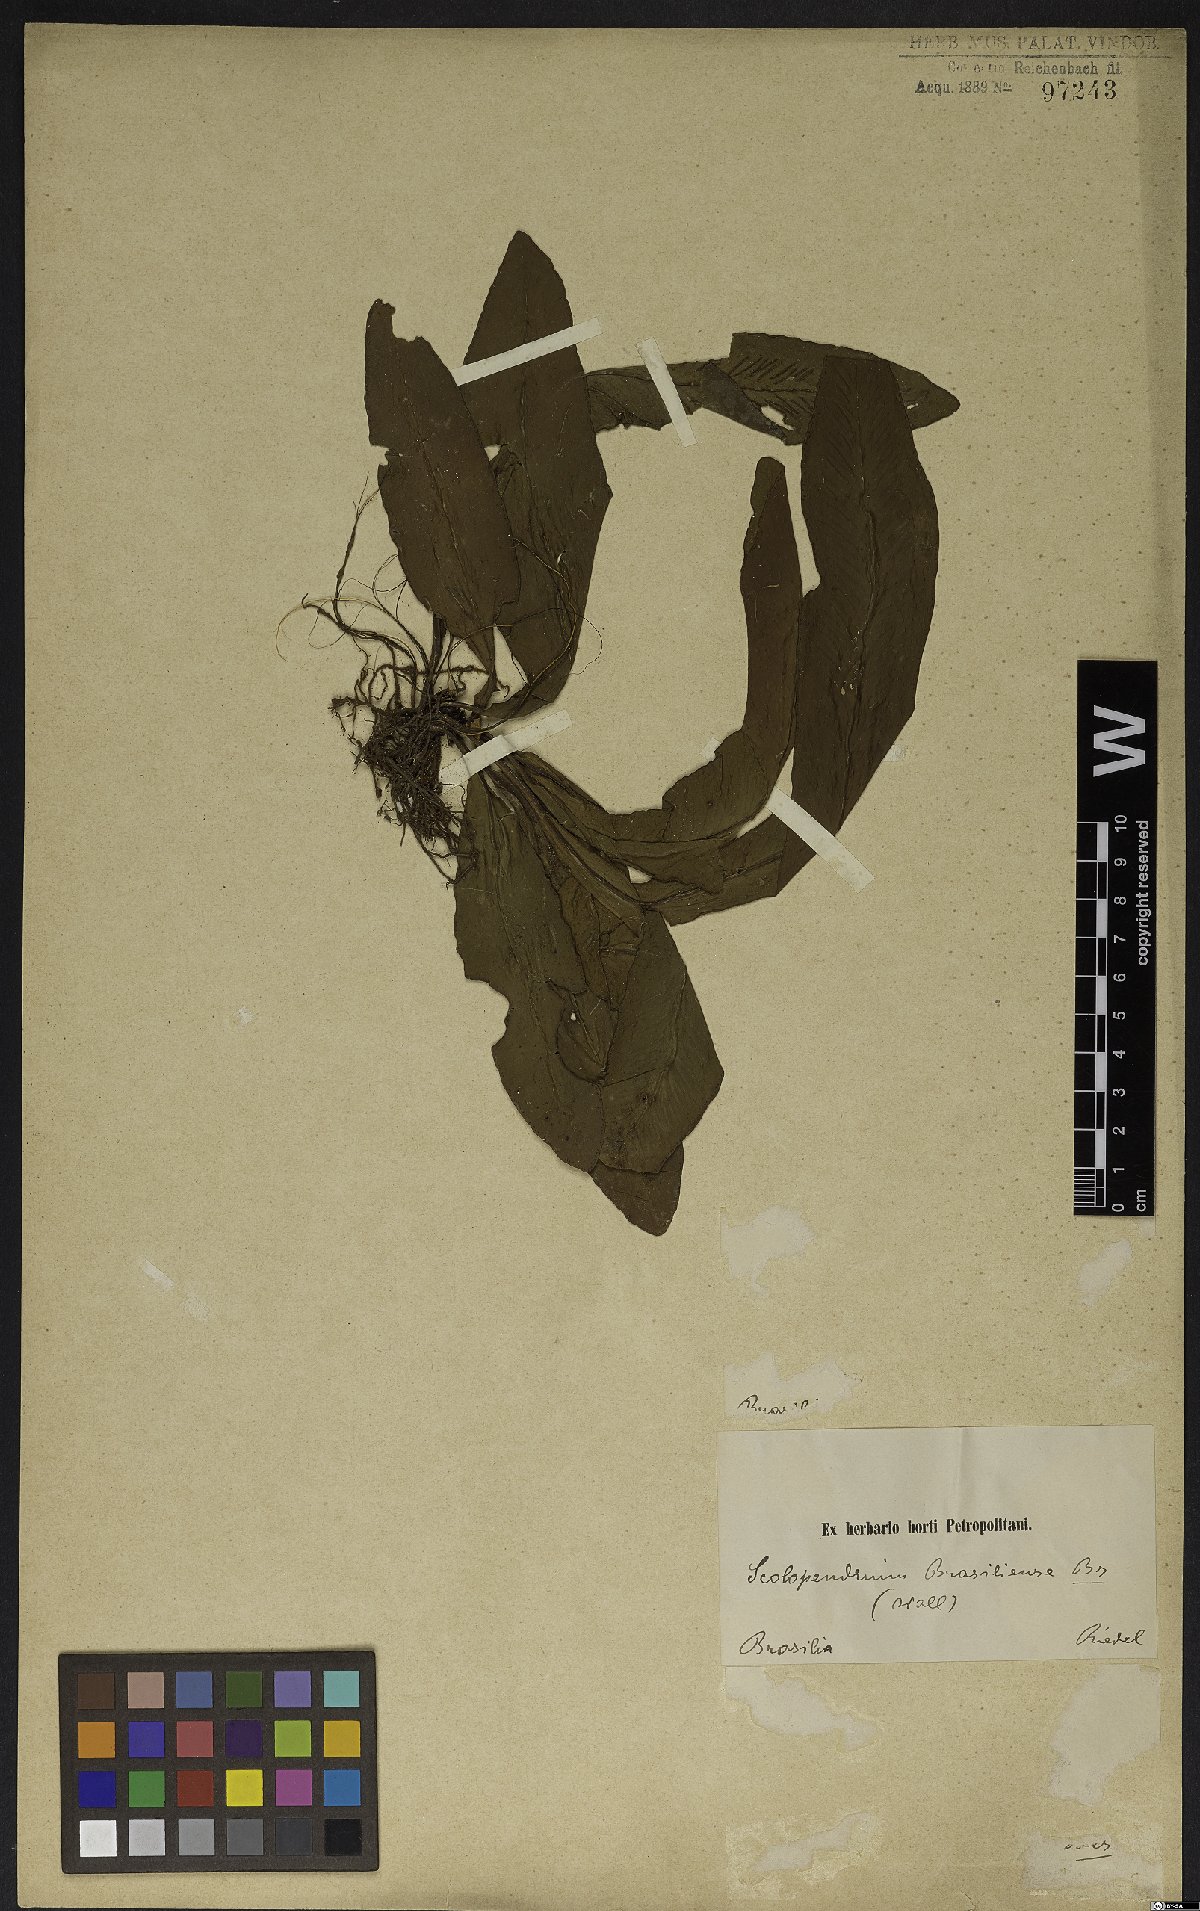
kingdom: Plantae
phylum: Tracheophyta
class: Polypodiopsida
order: Polypodiales
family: Aspleniaceae
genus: Asplenium
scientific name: Asplenium brasiliense
